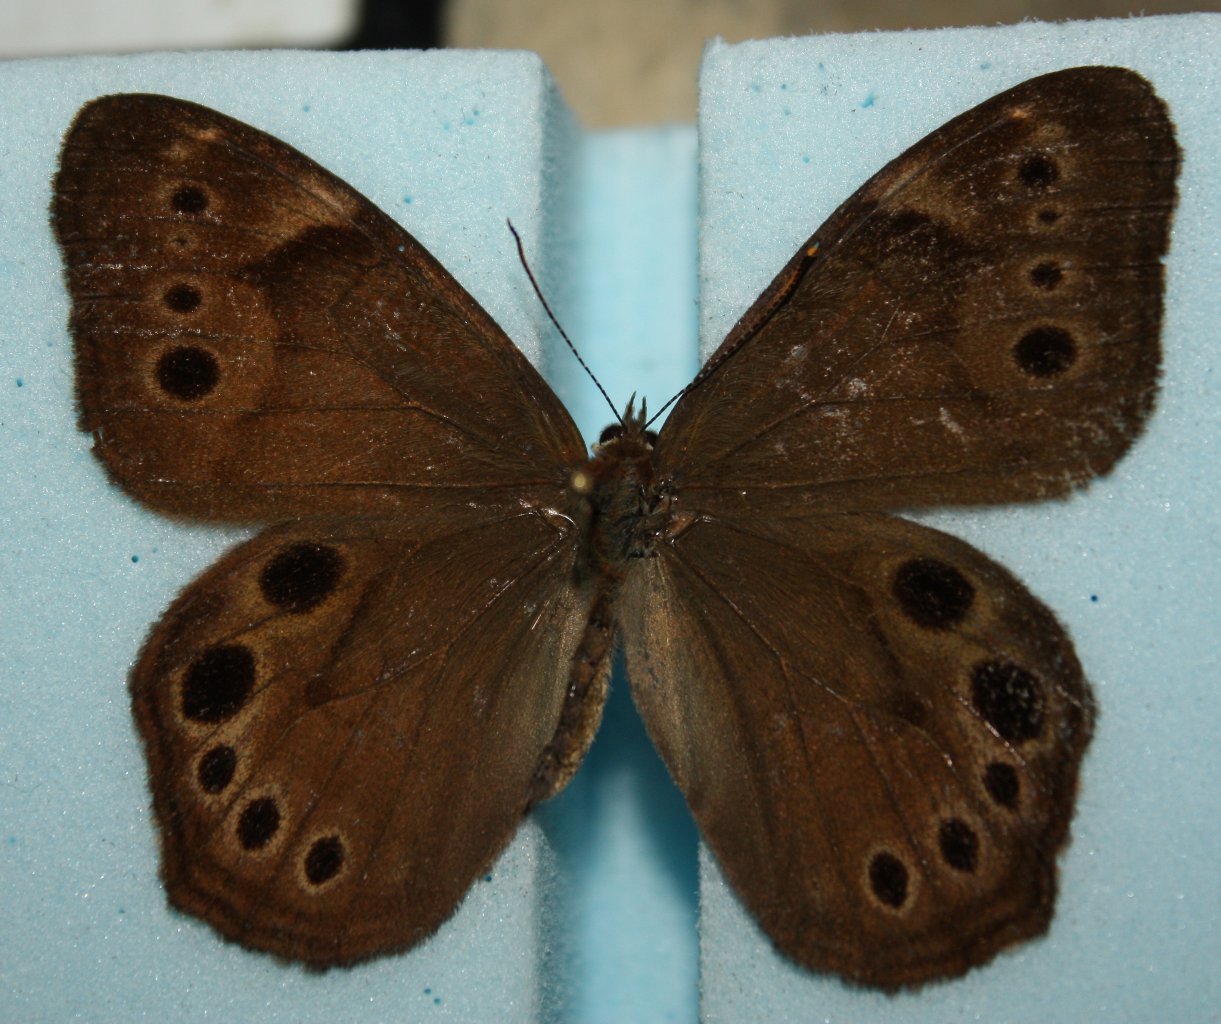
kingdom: Animalia
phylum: Arthropoda
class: Insecta
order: Lepidoptera
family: Nymphalidae
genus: Lethe
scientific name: Lethe anthedon
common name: Northern Pearly-Eye
